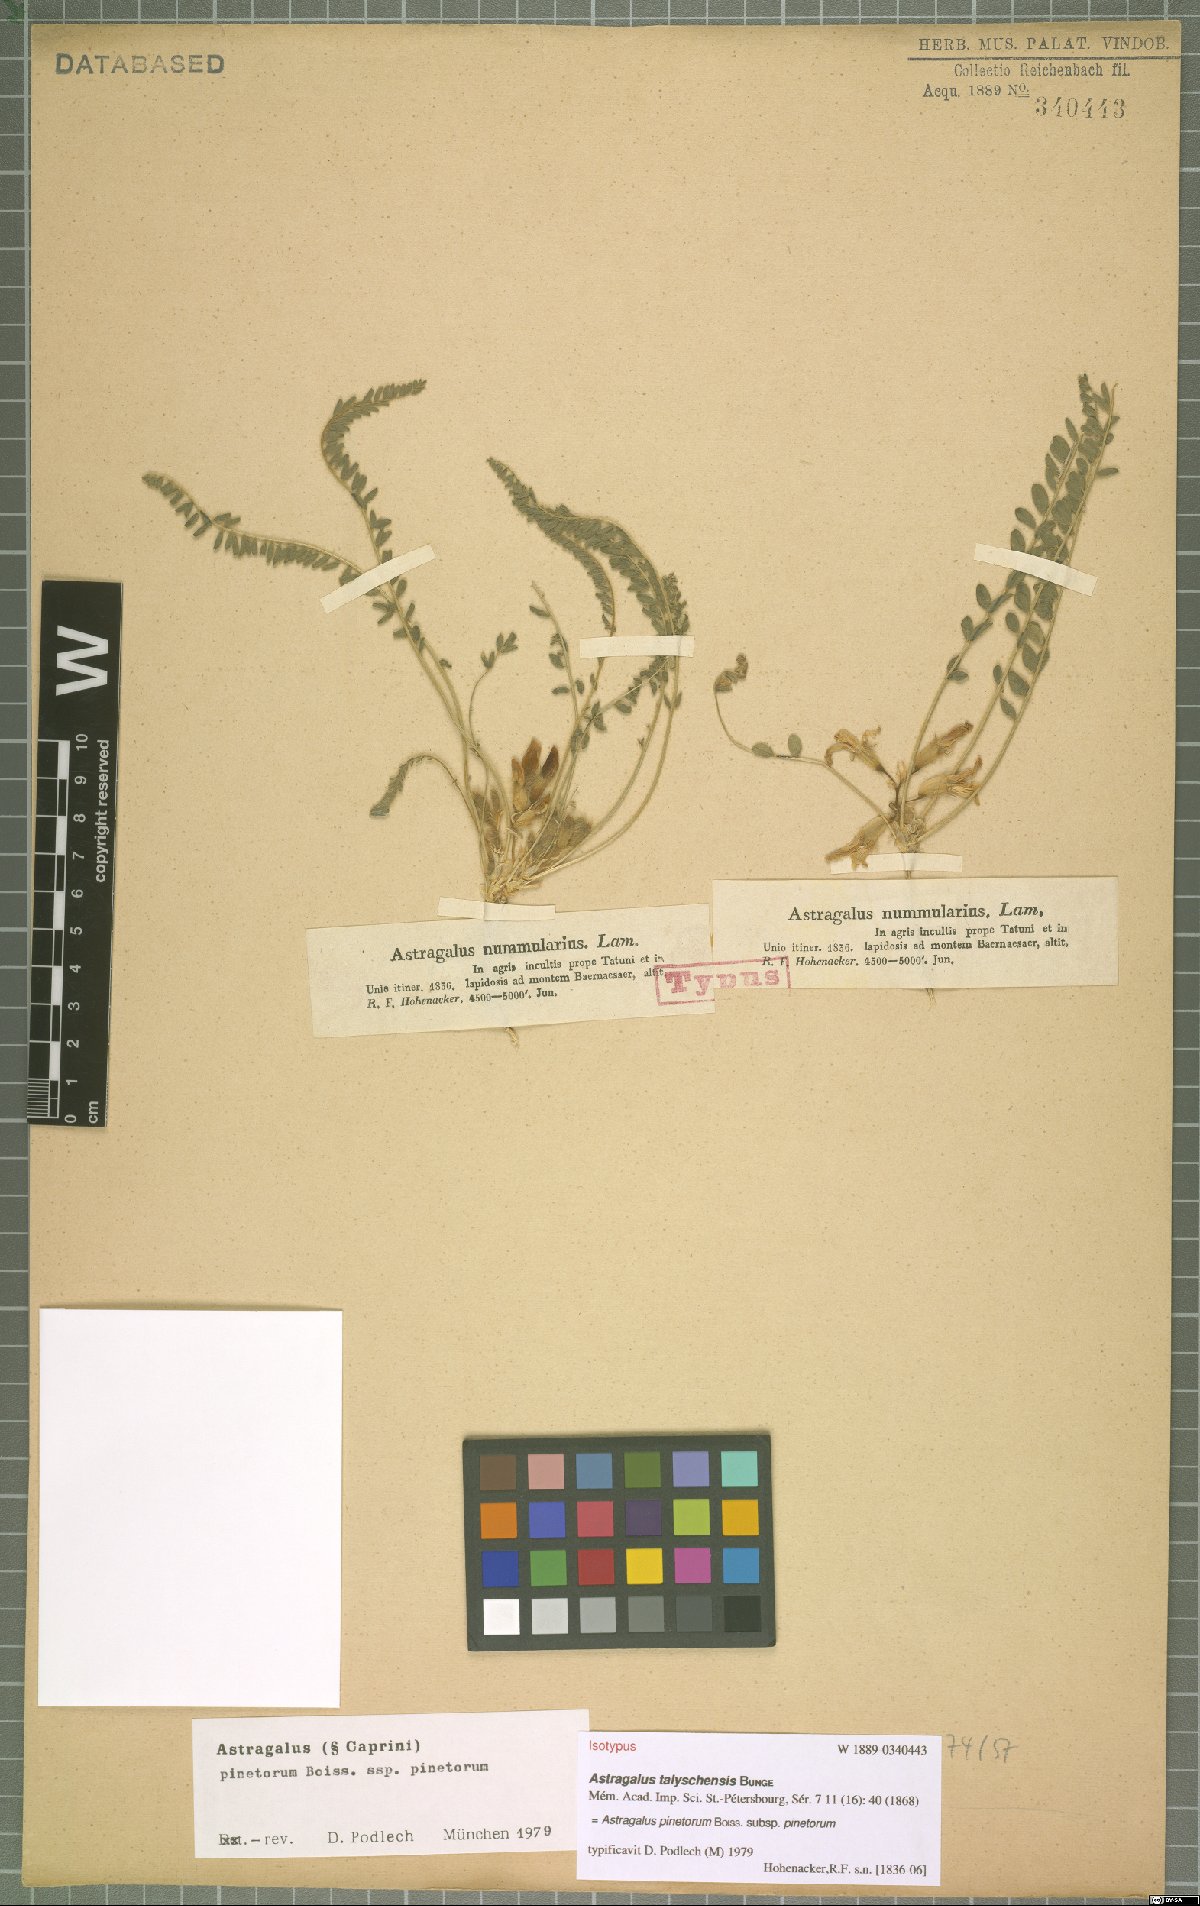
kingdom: Plantae
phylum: Tracheophyta
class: Magnoliopsida
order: Fabales
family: Fabaceae
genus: Astragalus
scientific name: Astragalus pinetorum
